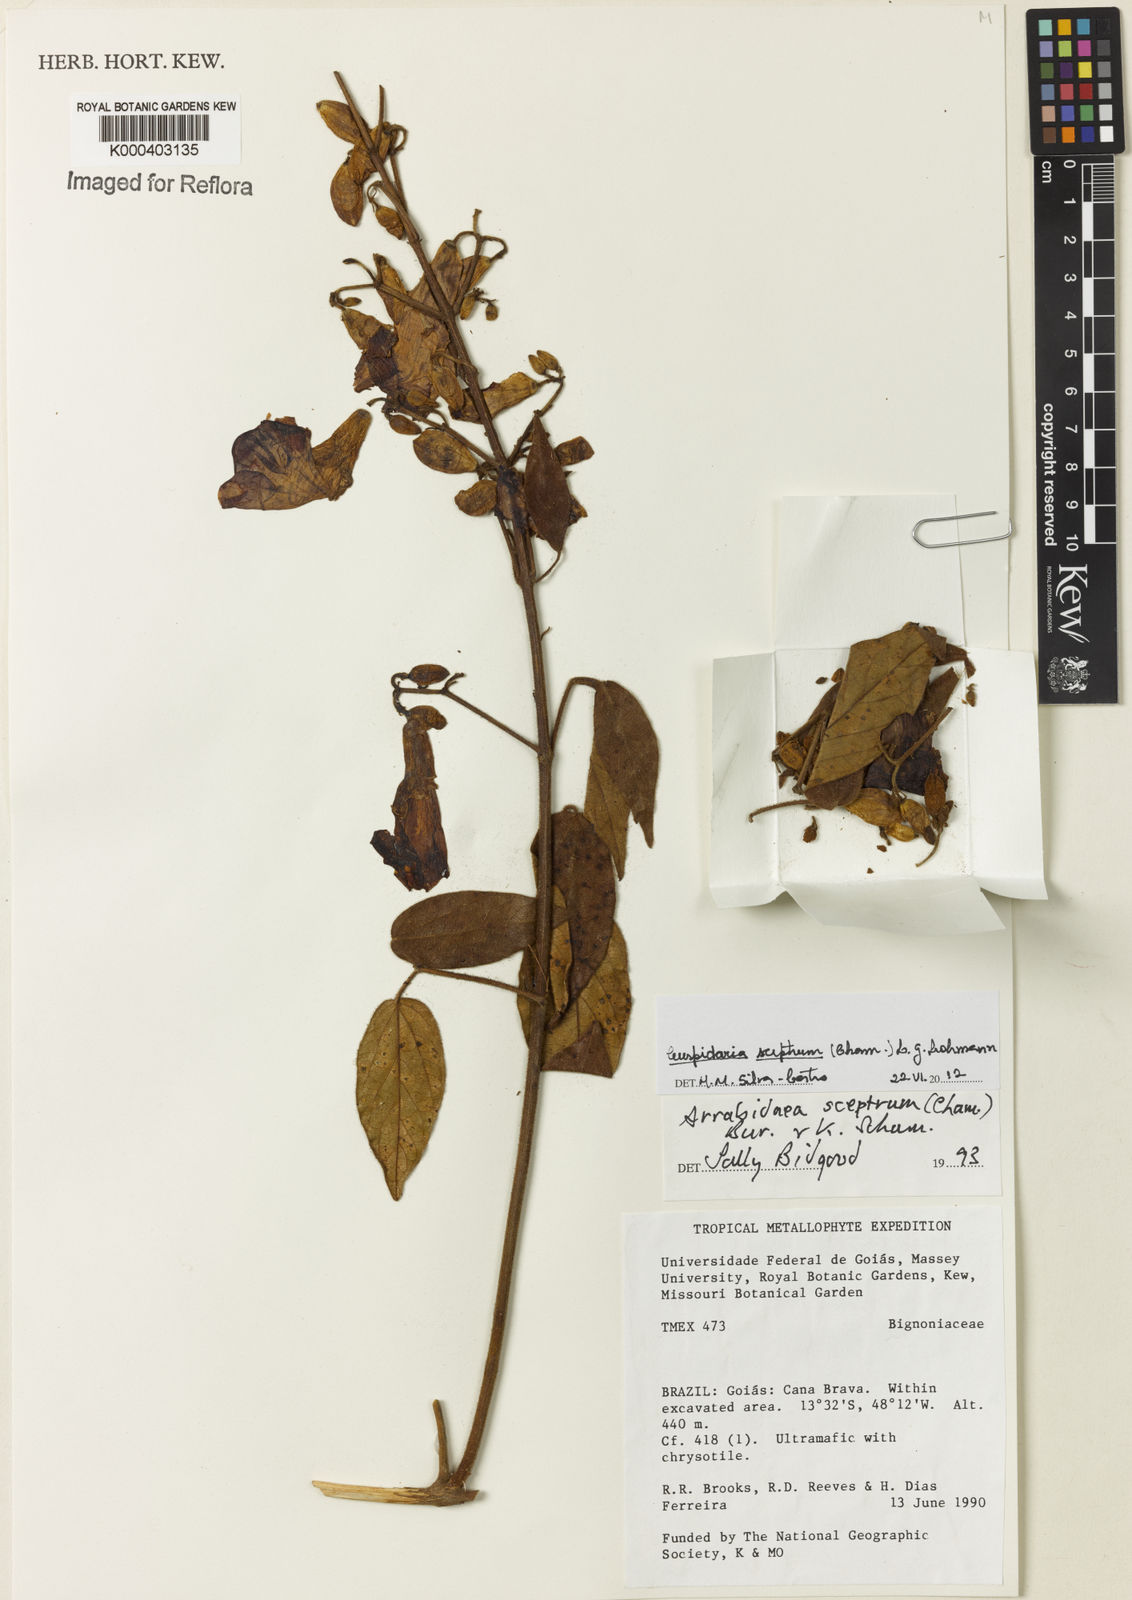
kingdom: Plantae
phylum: Tracheophyta
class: Magnoliopsida
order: Lamiales
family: Bignoniaceae
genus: Cuspidaria
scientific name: Cuspidaria sceptrum
